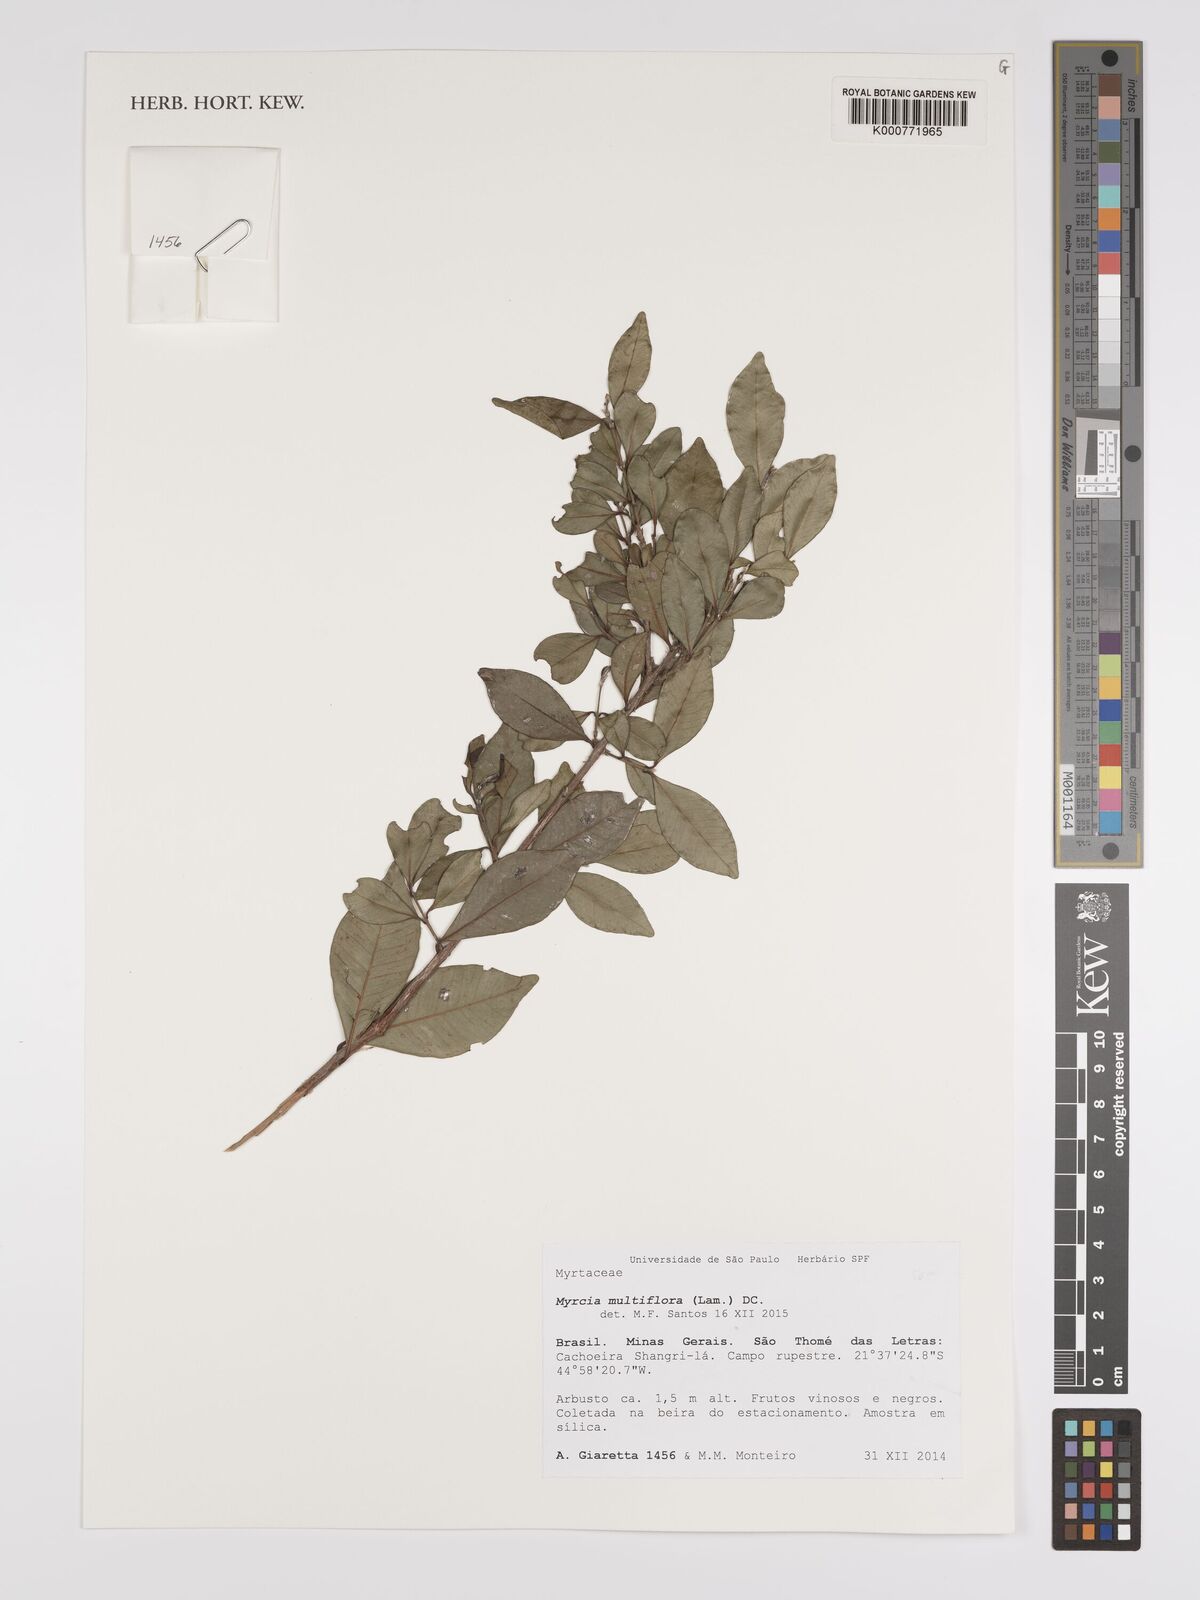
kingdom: Plantae
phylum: Tracheophyta
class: Magnoliopsida
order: Myrtales
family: Myrtaceae
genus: Myrcia
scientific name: Myrcia multiflora
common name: Pedra hume
